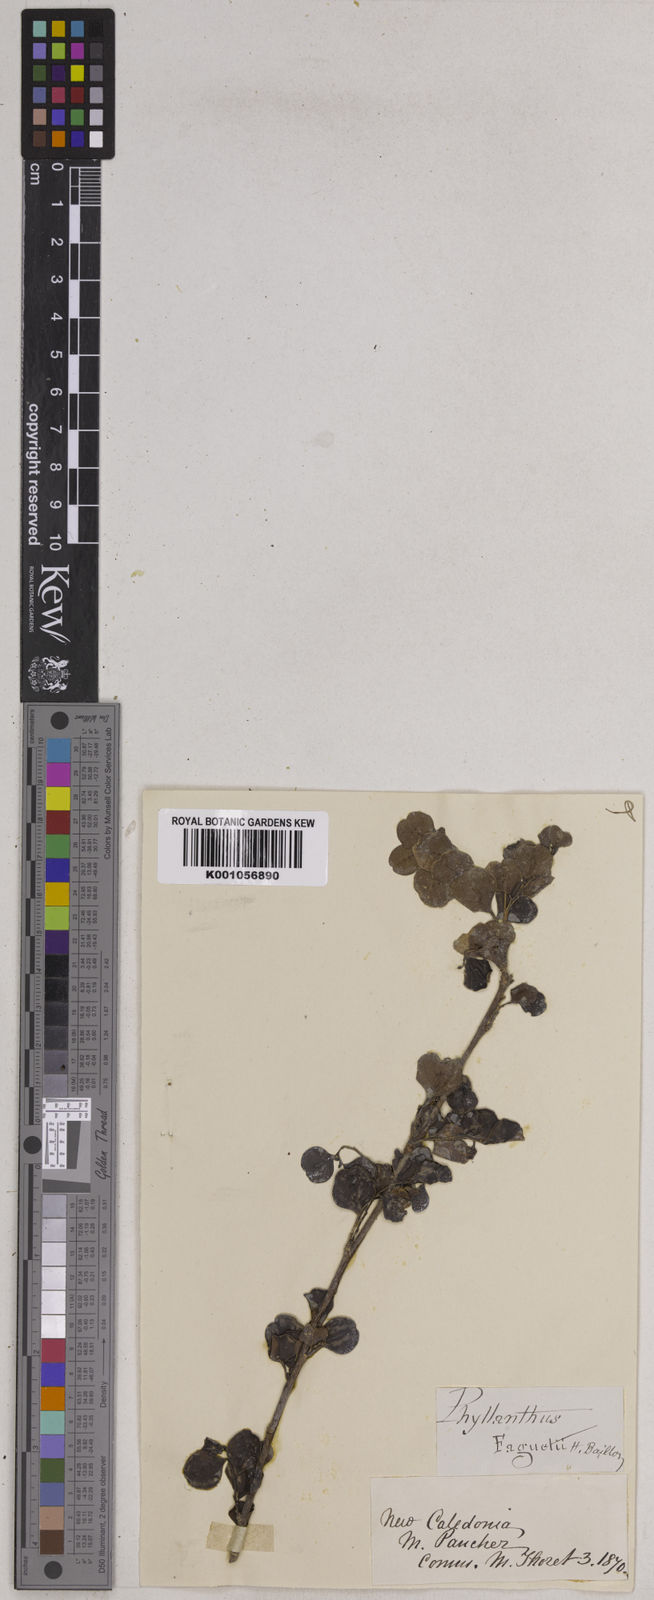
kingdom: Plantae
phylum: Tracheophyta
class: Magnoliopsida
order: Malpighiales
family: Phyllanthaceae
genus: Phyllanthus
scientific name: Phyllanthus faguetii
